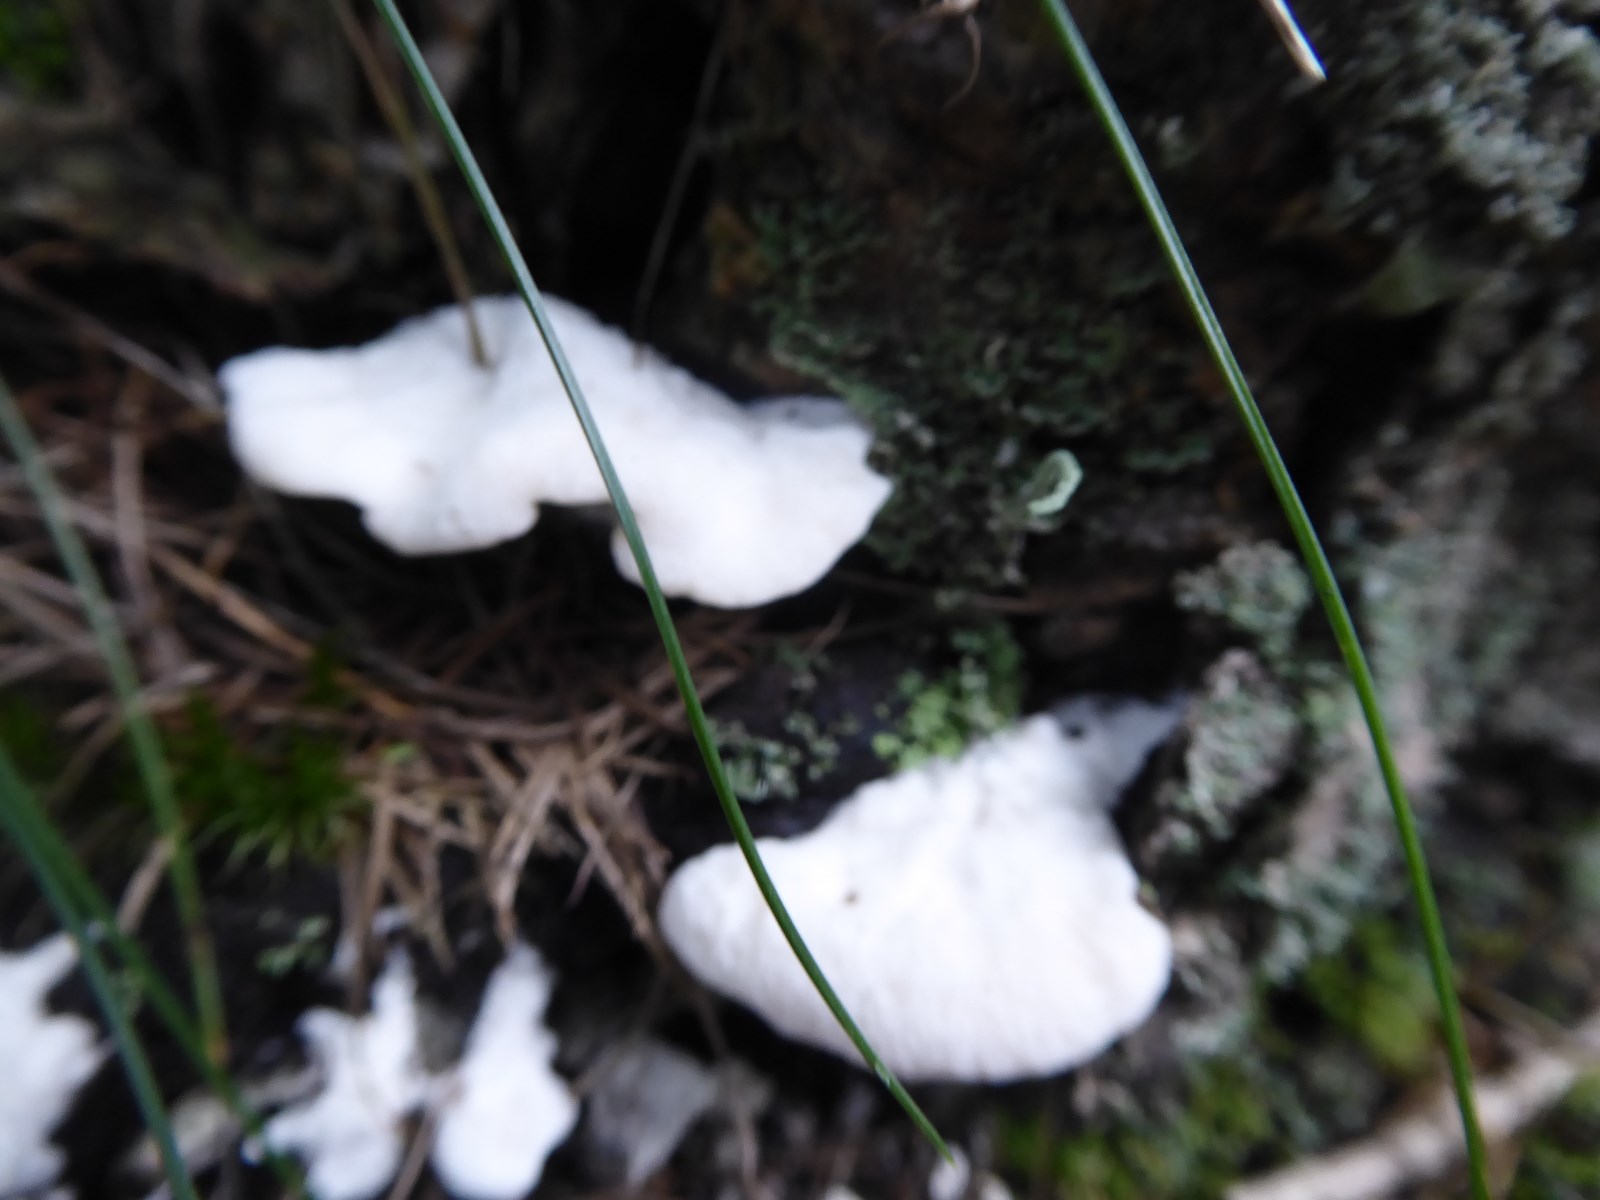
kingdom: Fungi
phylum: Basidiomycota
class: Agaricomycetes
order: Polyporales
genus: Amaropostia
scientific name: Amaropostia stiptica
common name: bitter kødporesvamp
